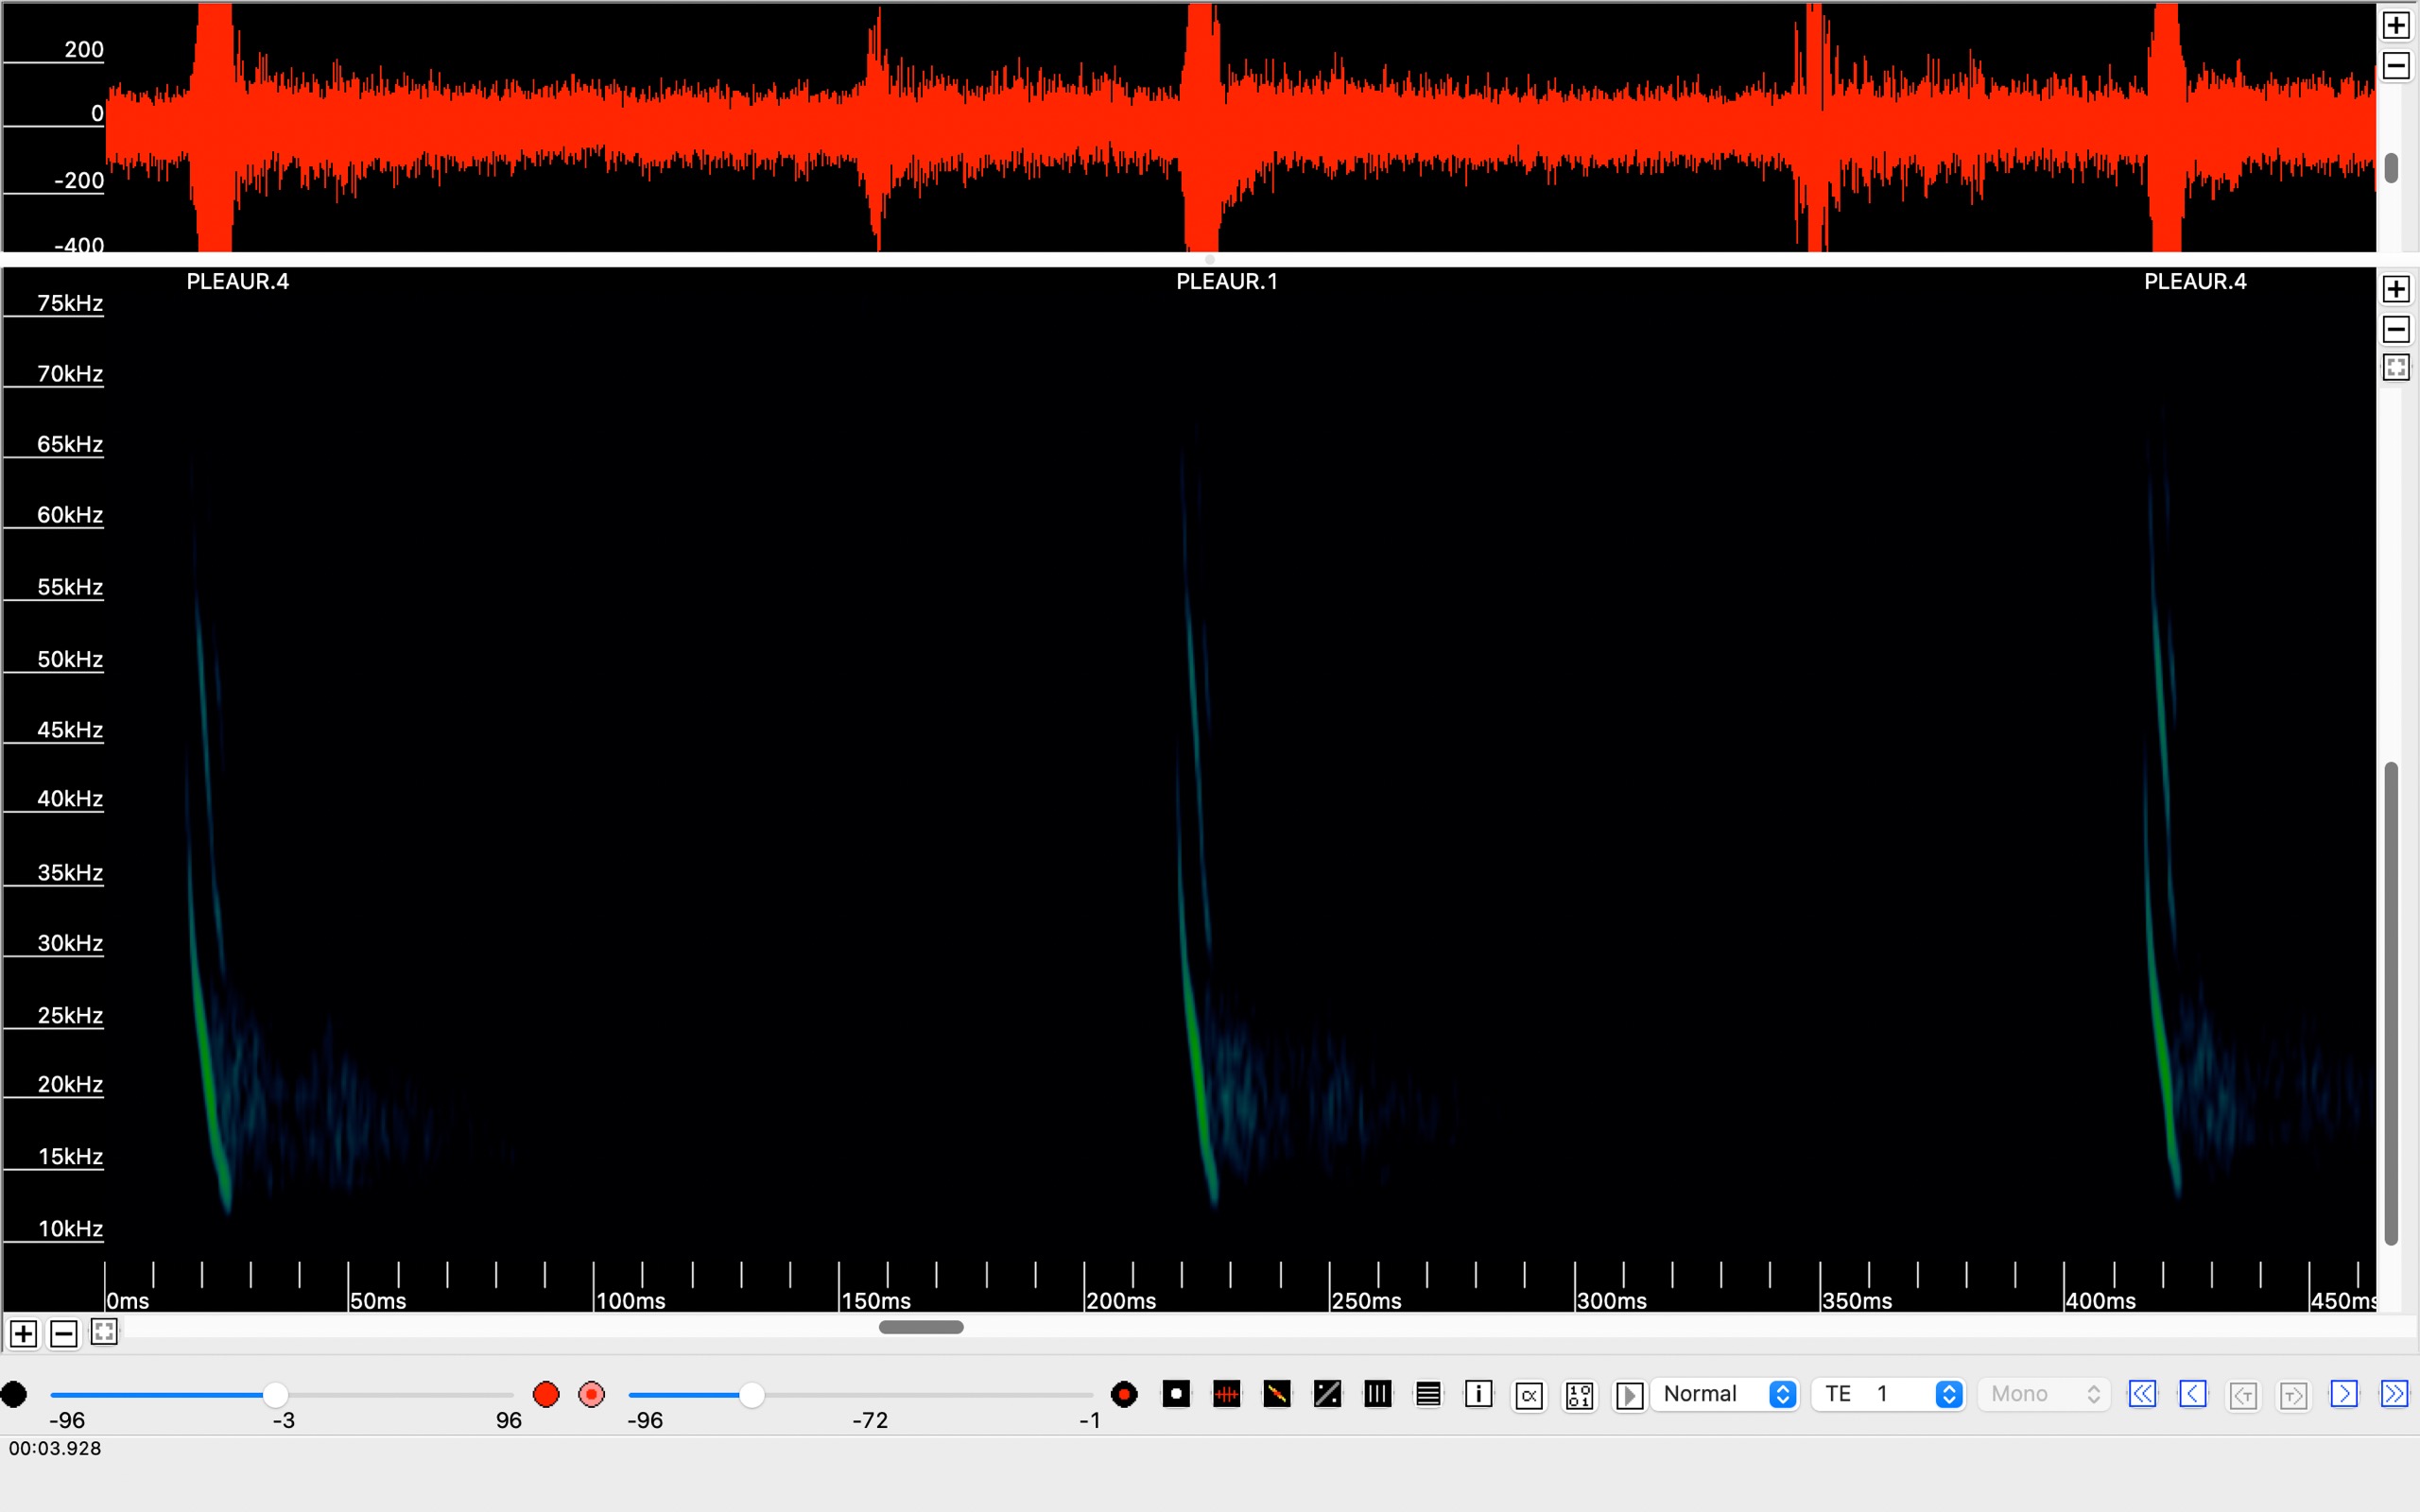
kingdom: Animalia
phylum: Chordata
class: Mammalia
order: Chiroptera
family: Vespertilionidae
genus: Plecotus
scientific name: Plecotus auritus
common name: Brun langøre
